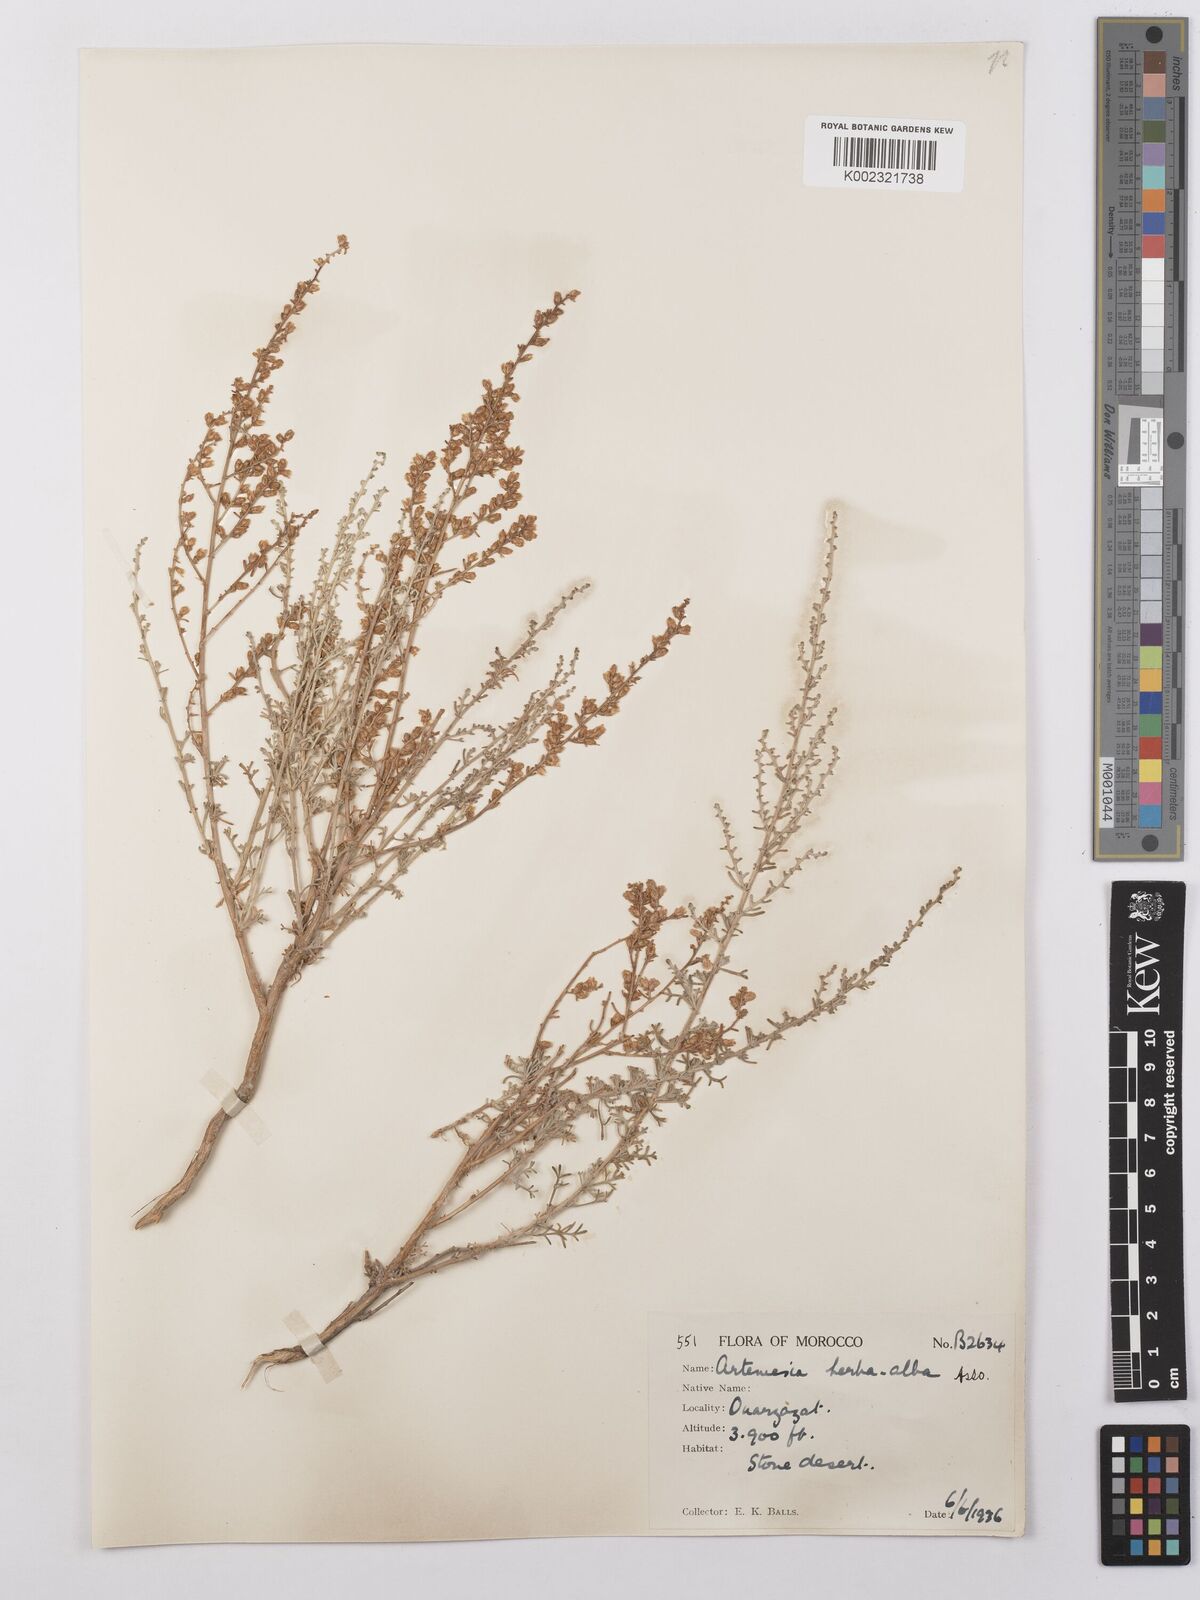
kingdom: Plantae
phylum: Tracheophyta
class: Magnoliopsida
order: Asterales
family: Asteraceae
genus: Artemisia
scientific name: Artemisia herba-alba
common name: White wormwood
